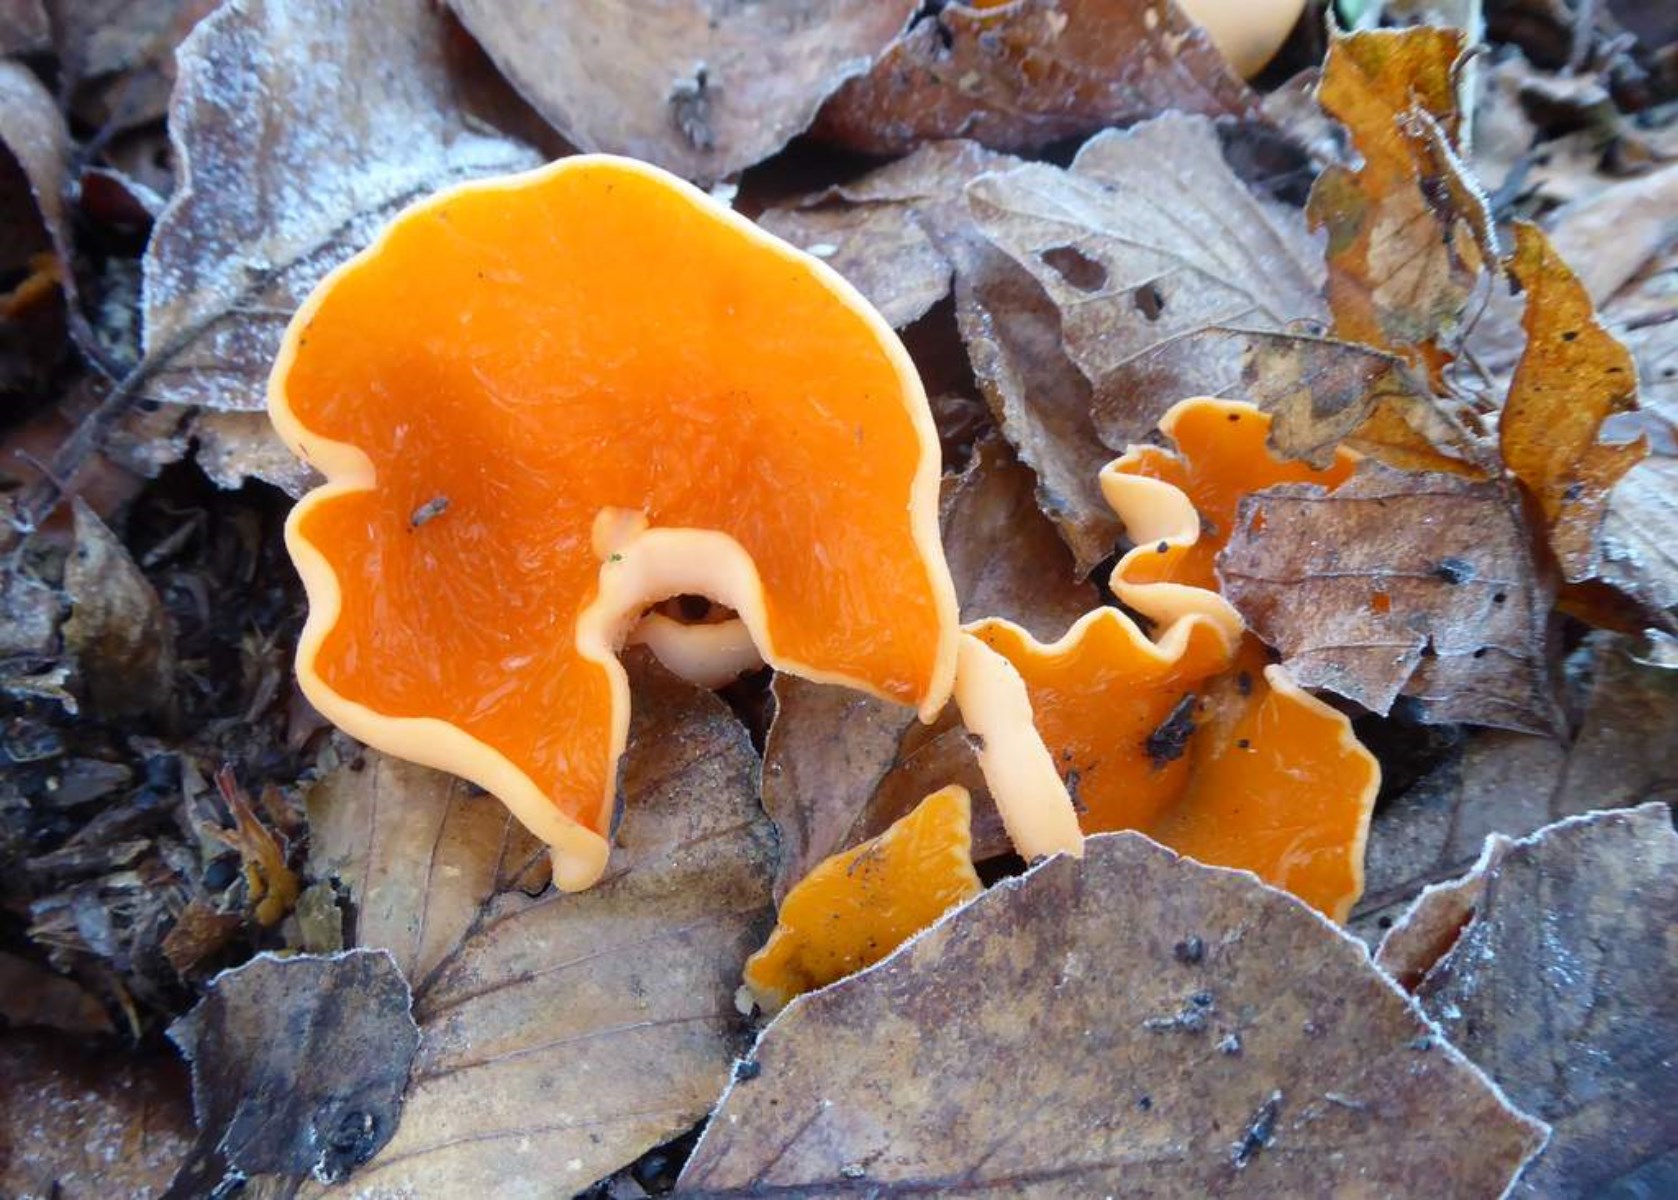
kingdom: Fungi
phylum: Ascomycota
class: Pezizomycetes
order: Pezizales
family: Pyronemataceae
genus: Aleuria
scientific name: Aleuria aurantia
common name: almindelig orangebæger
